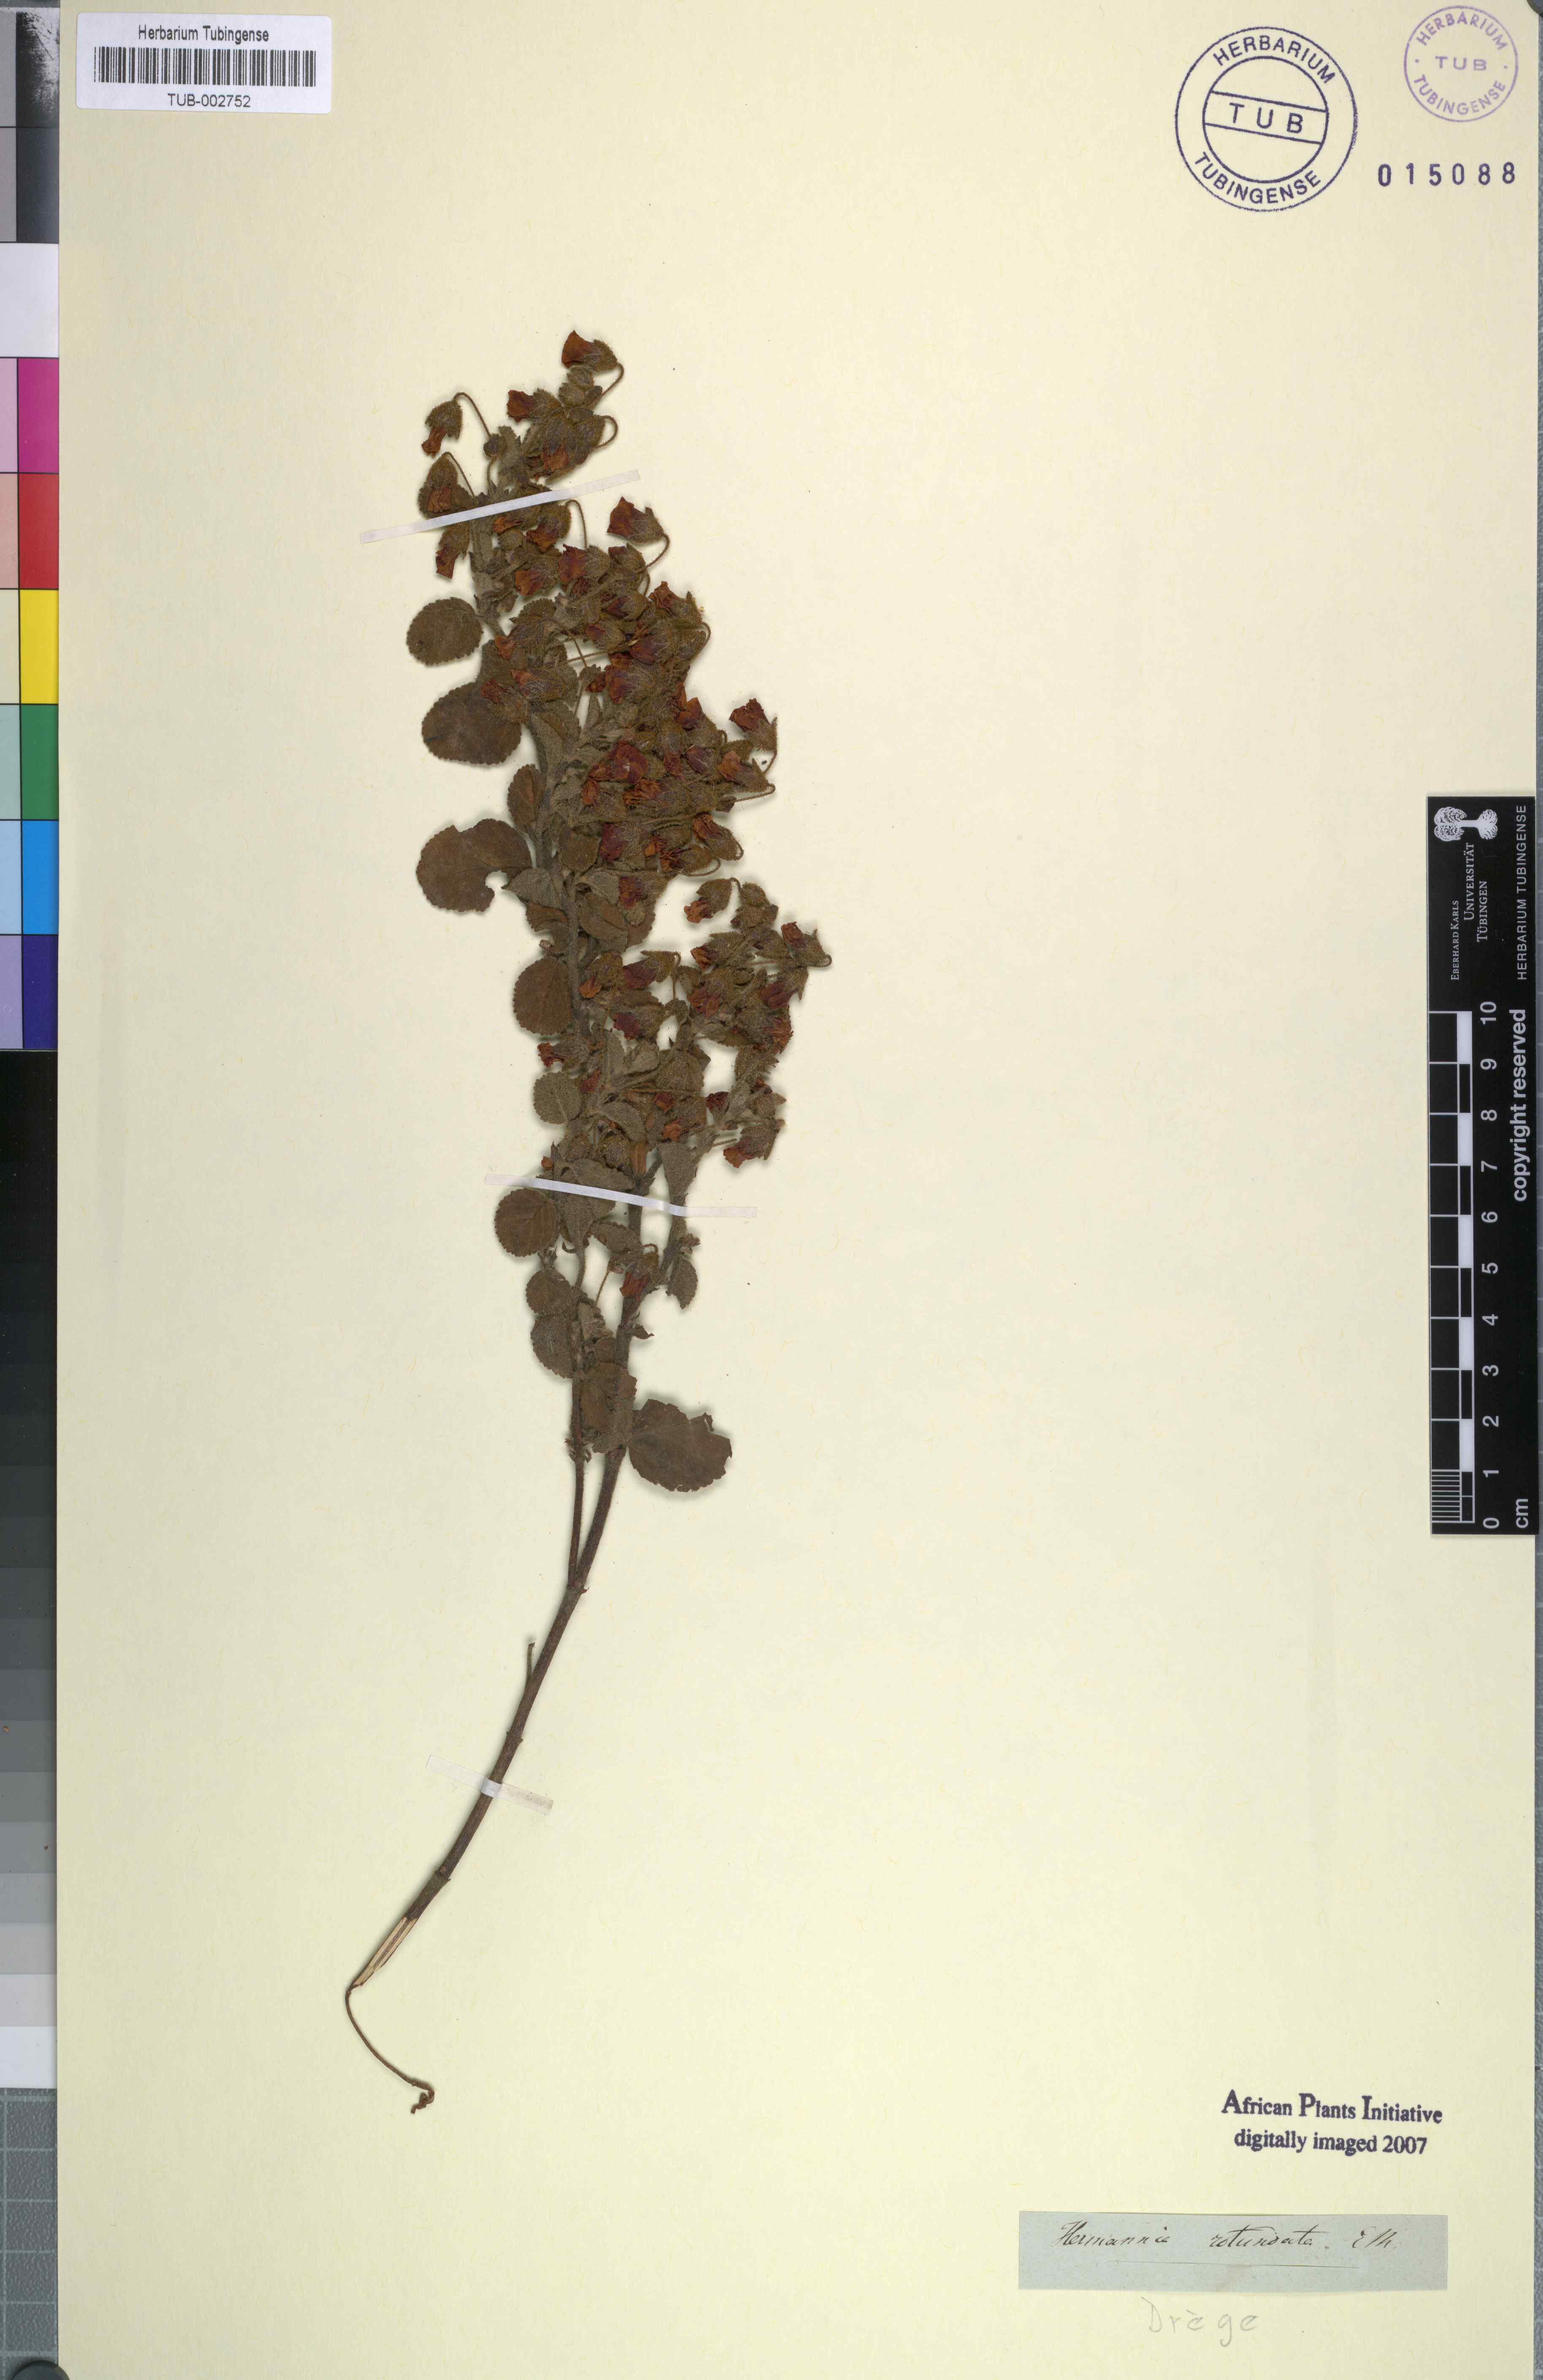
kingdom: Plantae
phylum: Tracheophyta
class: Magnoliopsida
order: Malvales
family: Malvaceae
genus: Hermannia
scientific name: Hermannia
